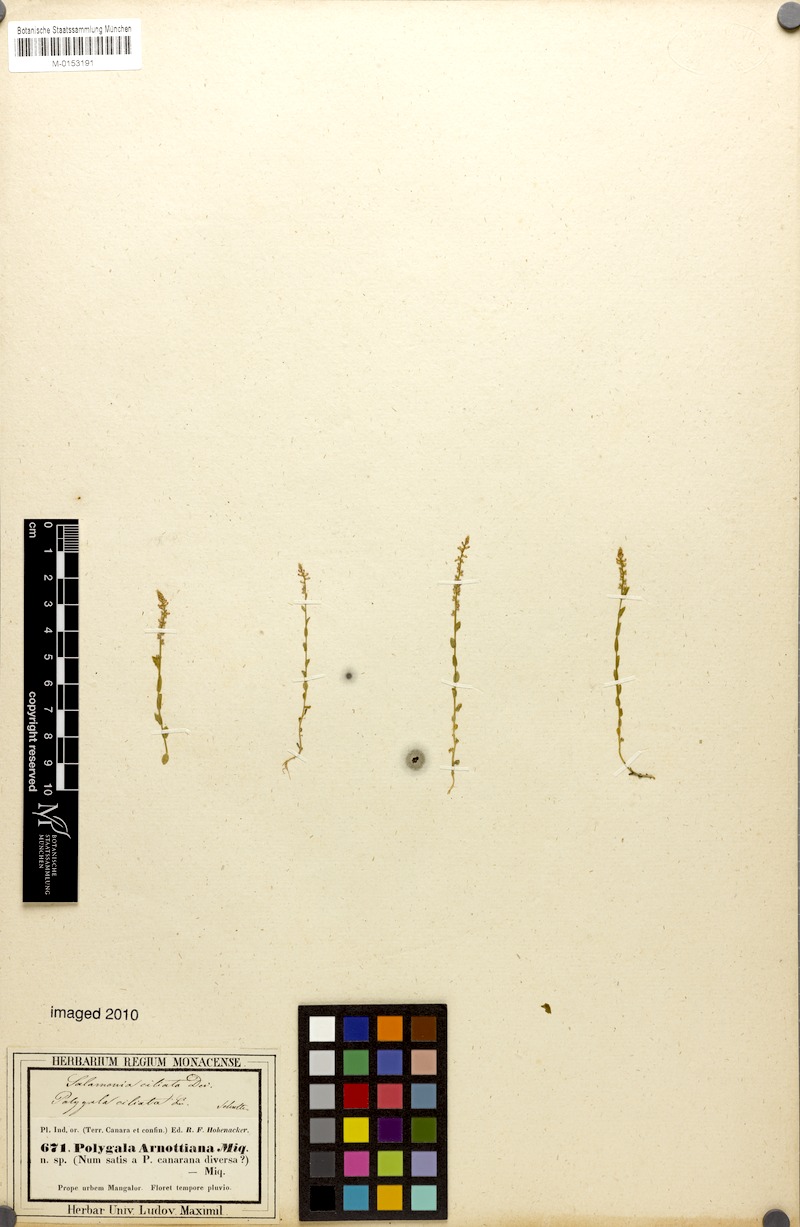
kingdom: Plantae
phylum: Tracheophyta
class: Magnoliopsida
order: Fabales
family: Polygalaceae
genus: Salomonia
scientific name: Salomonia ciliata
